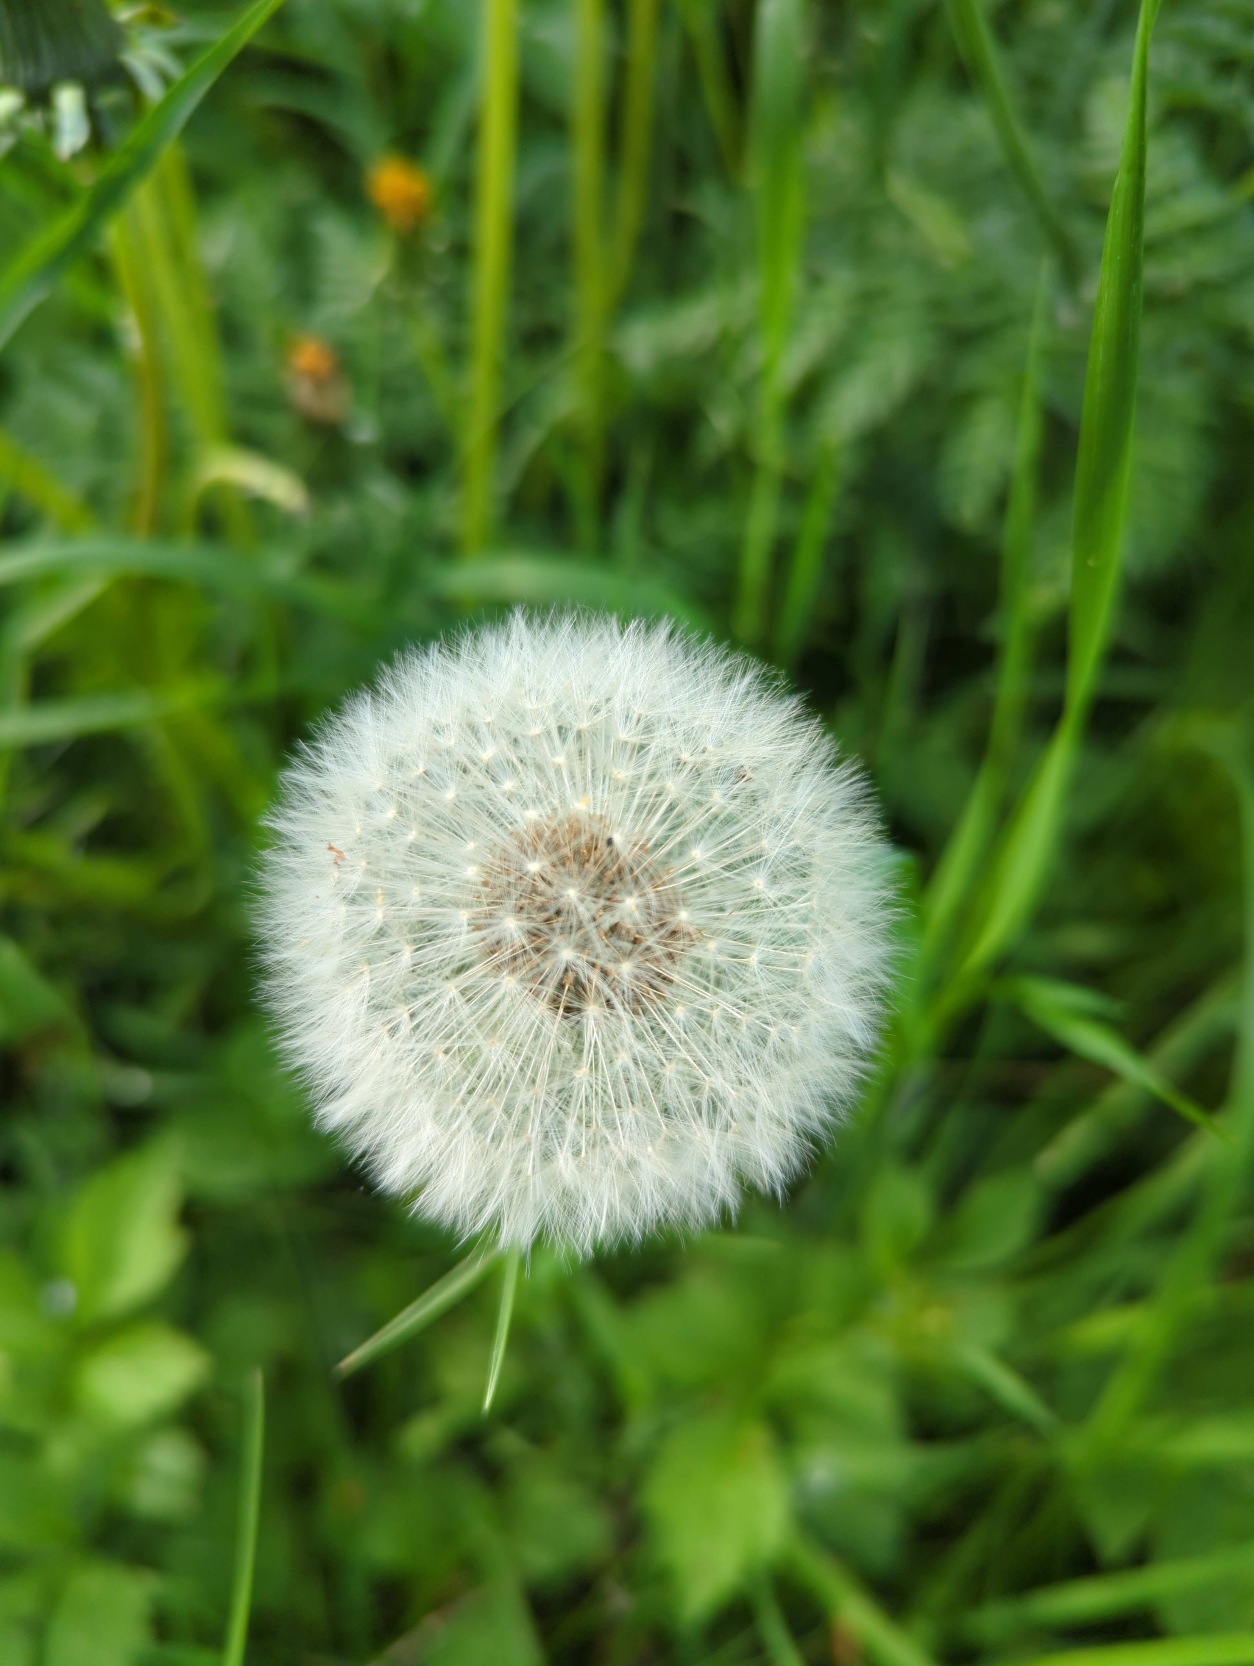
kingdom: Plantae
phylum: Tracheophyta
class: Magnoliopsida
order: Asterales
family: Asteraceae
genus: Taraxacum
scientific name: Taraxacum
